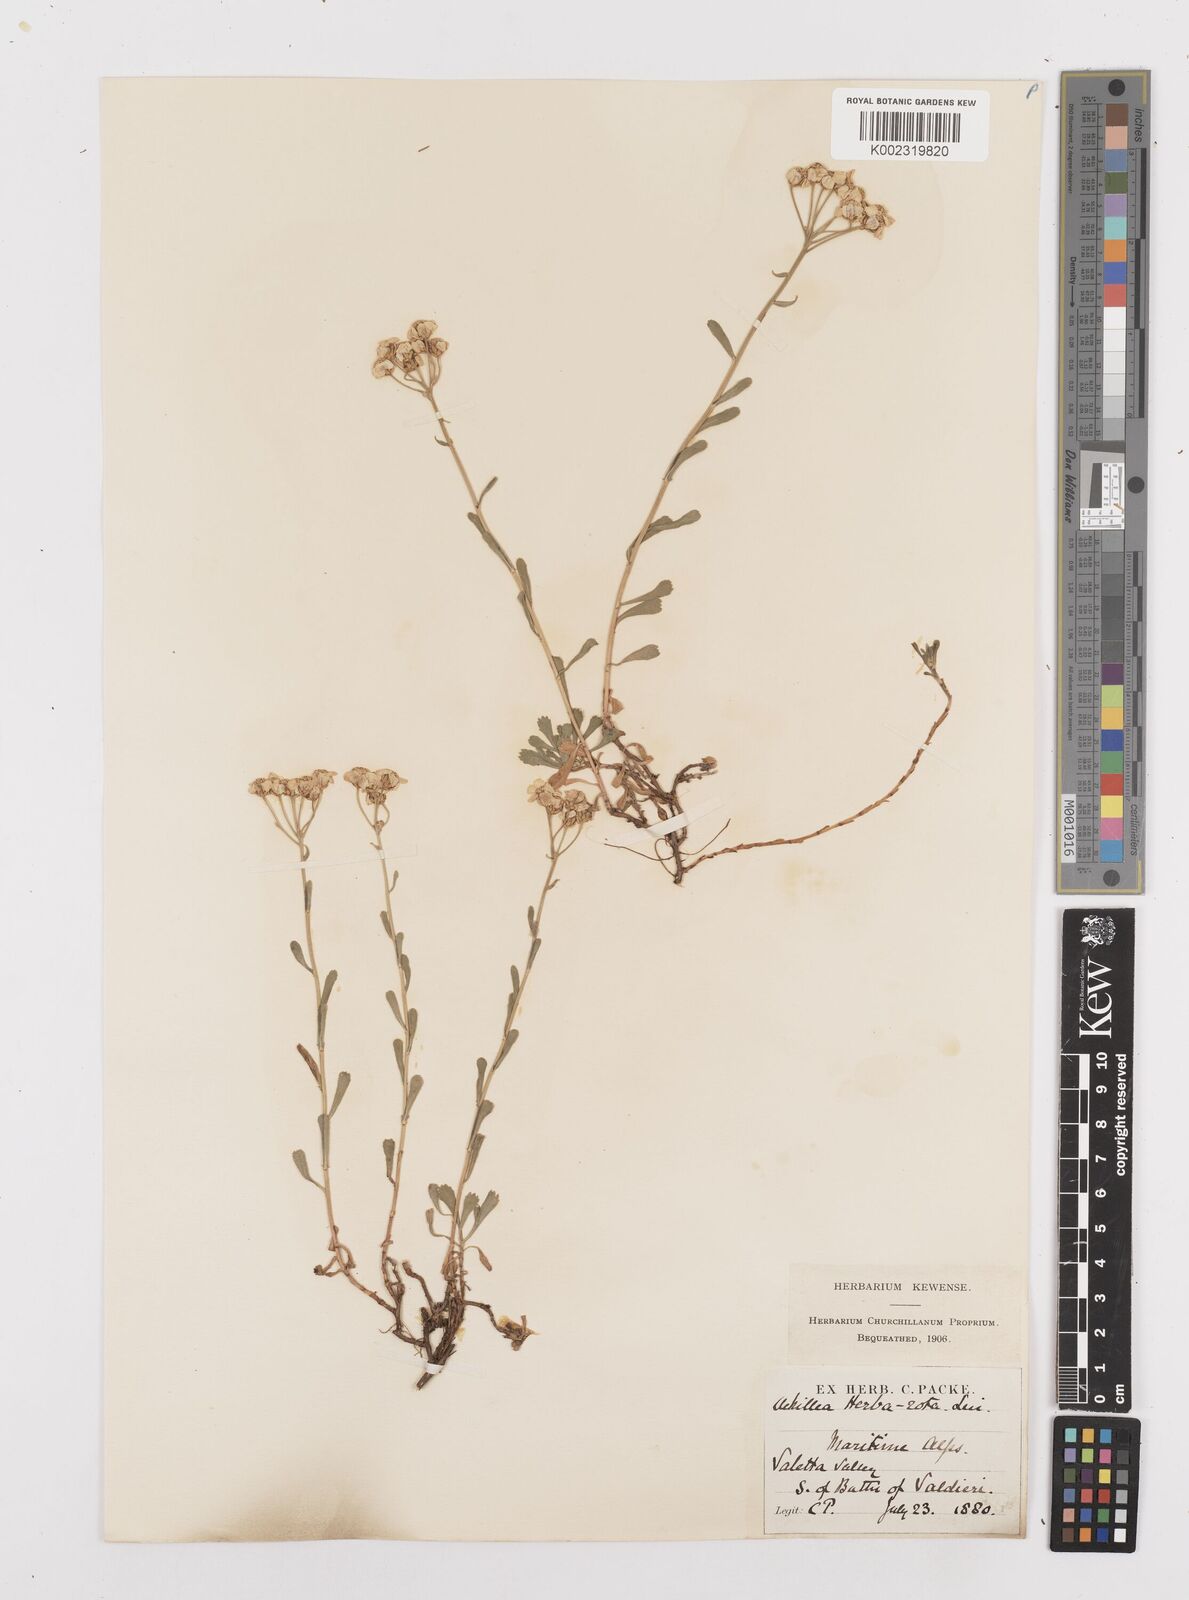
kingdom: Plantae
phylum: Tracheophyta
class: Magnoliopsida
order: Asterales
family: Asteraceae
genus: Achillea
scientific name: Achillea erba-rotta
